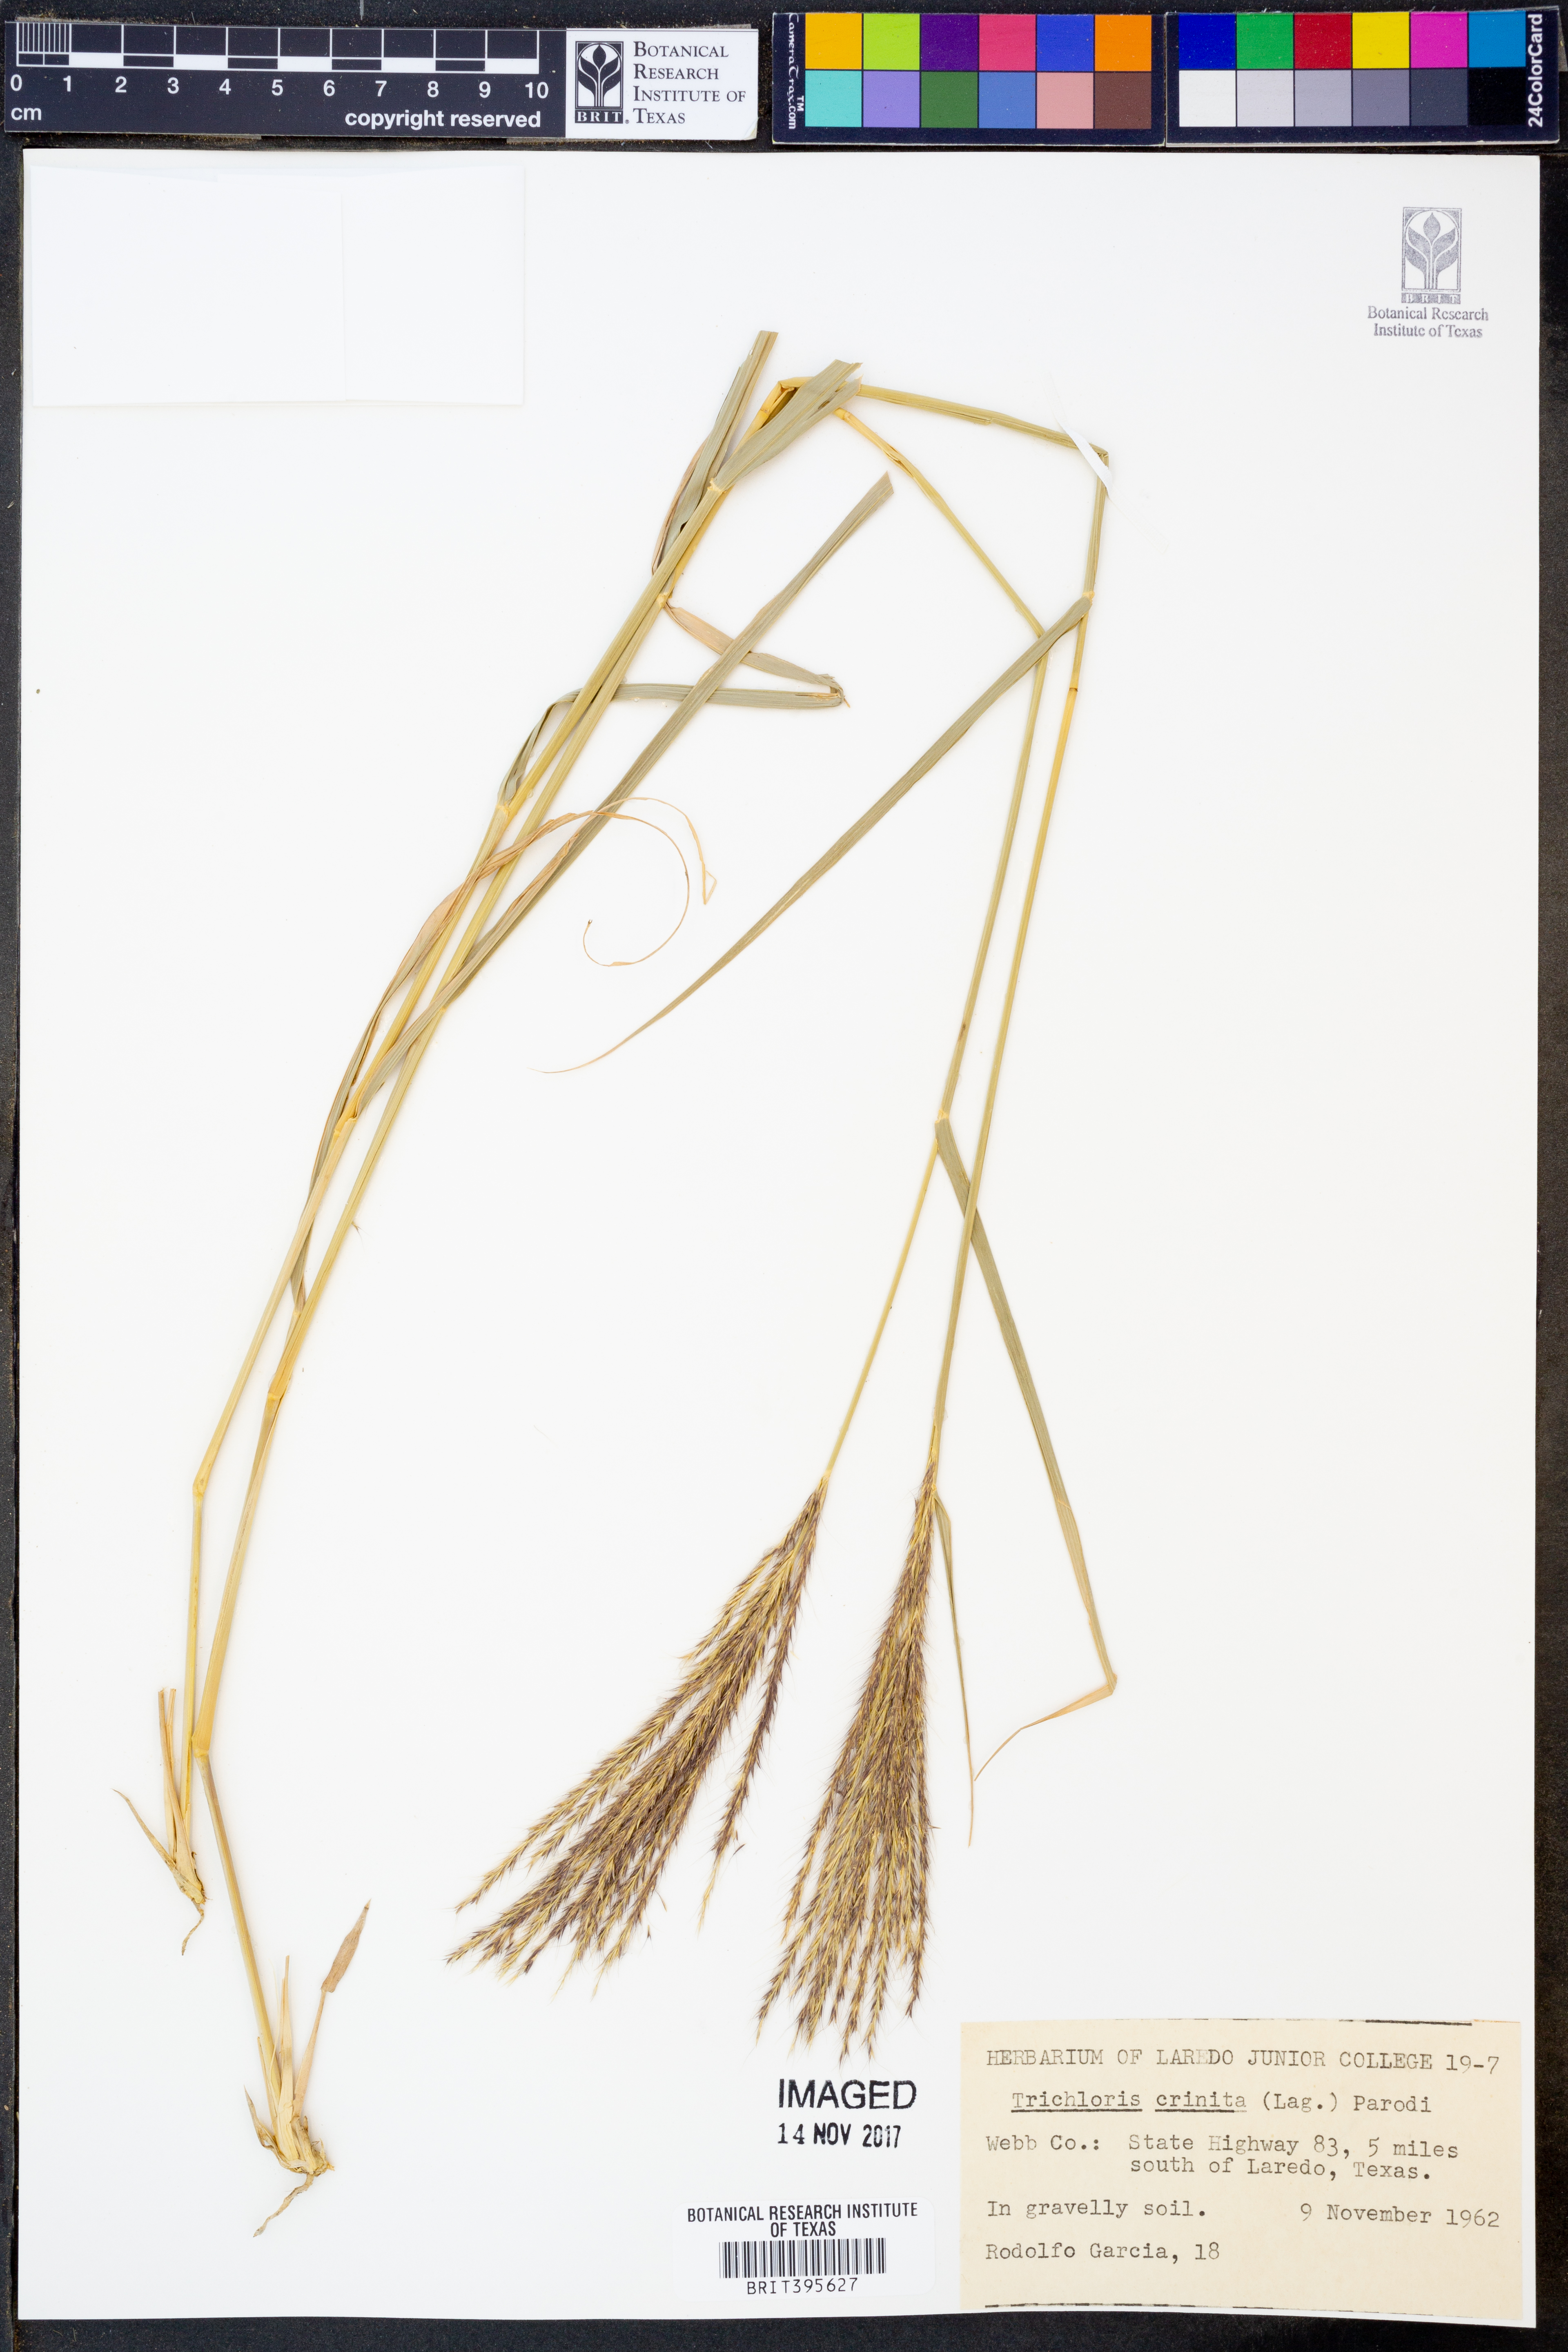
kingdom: Plantae
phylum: Tracheophyta
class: Liliopsida
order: Poales
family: Poaceae
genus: Leptochloa
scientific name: Leptochloa crinita
